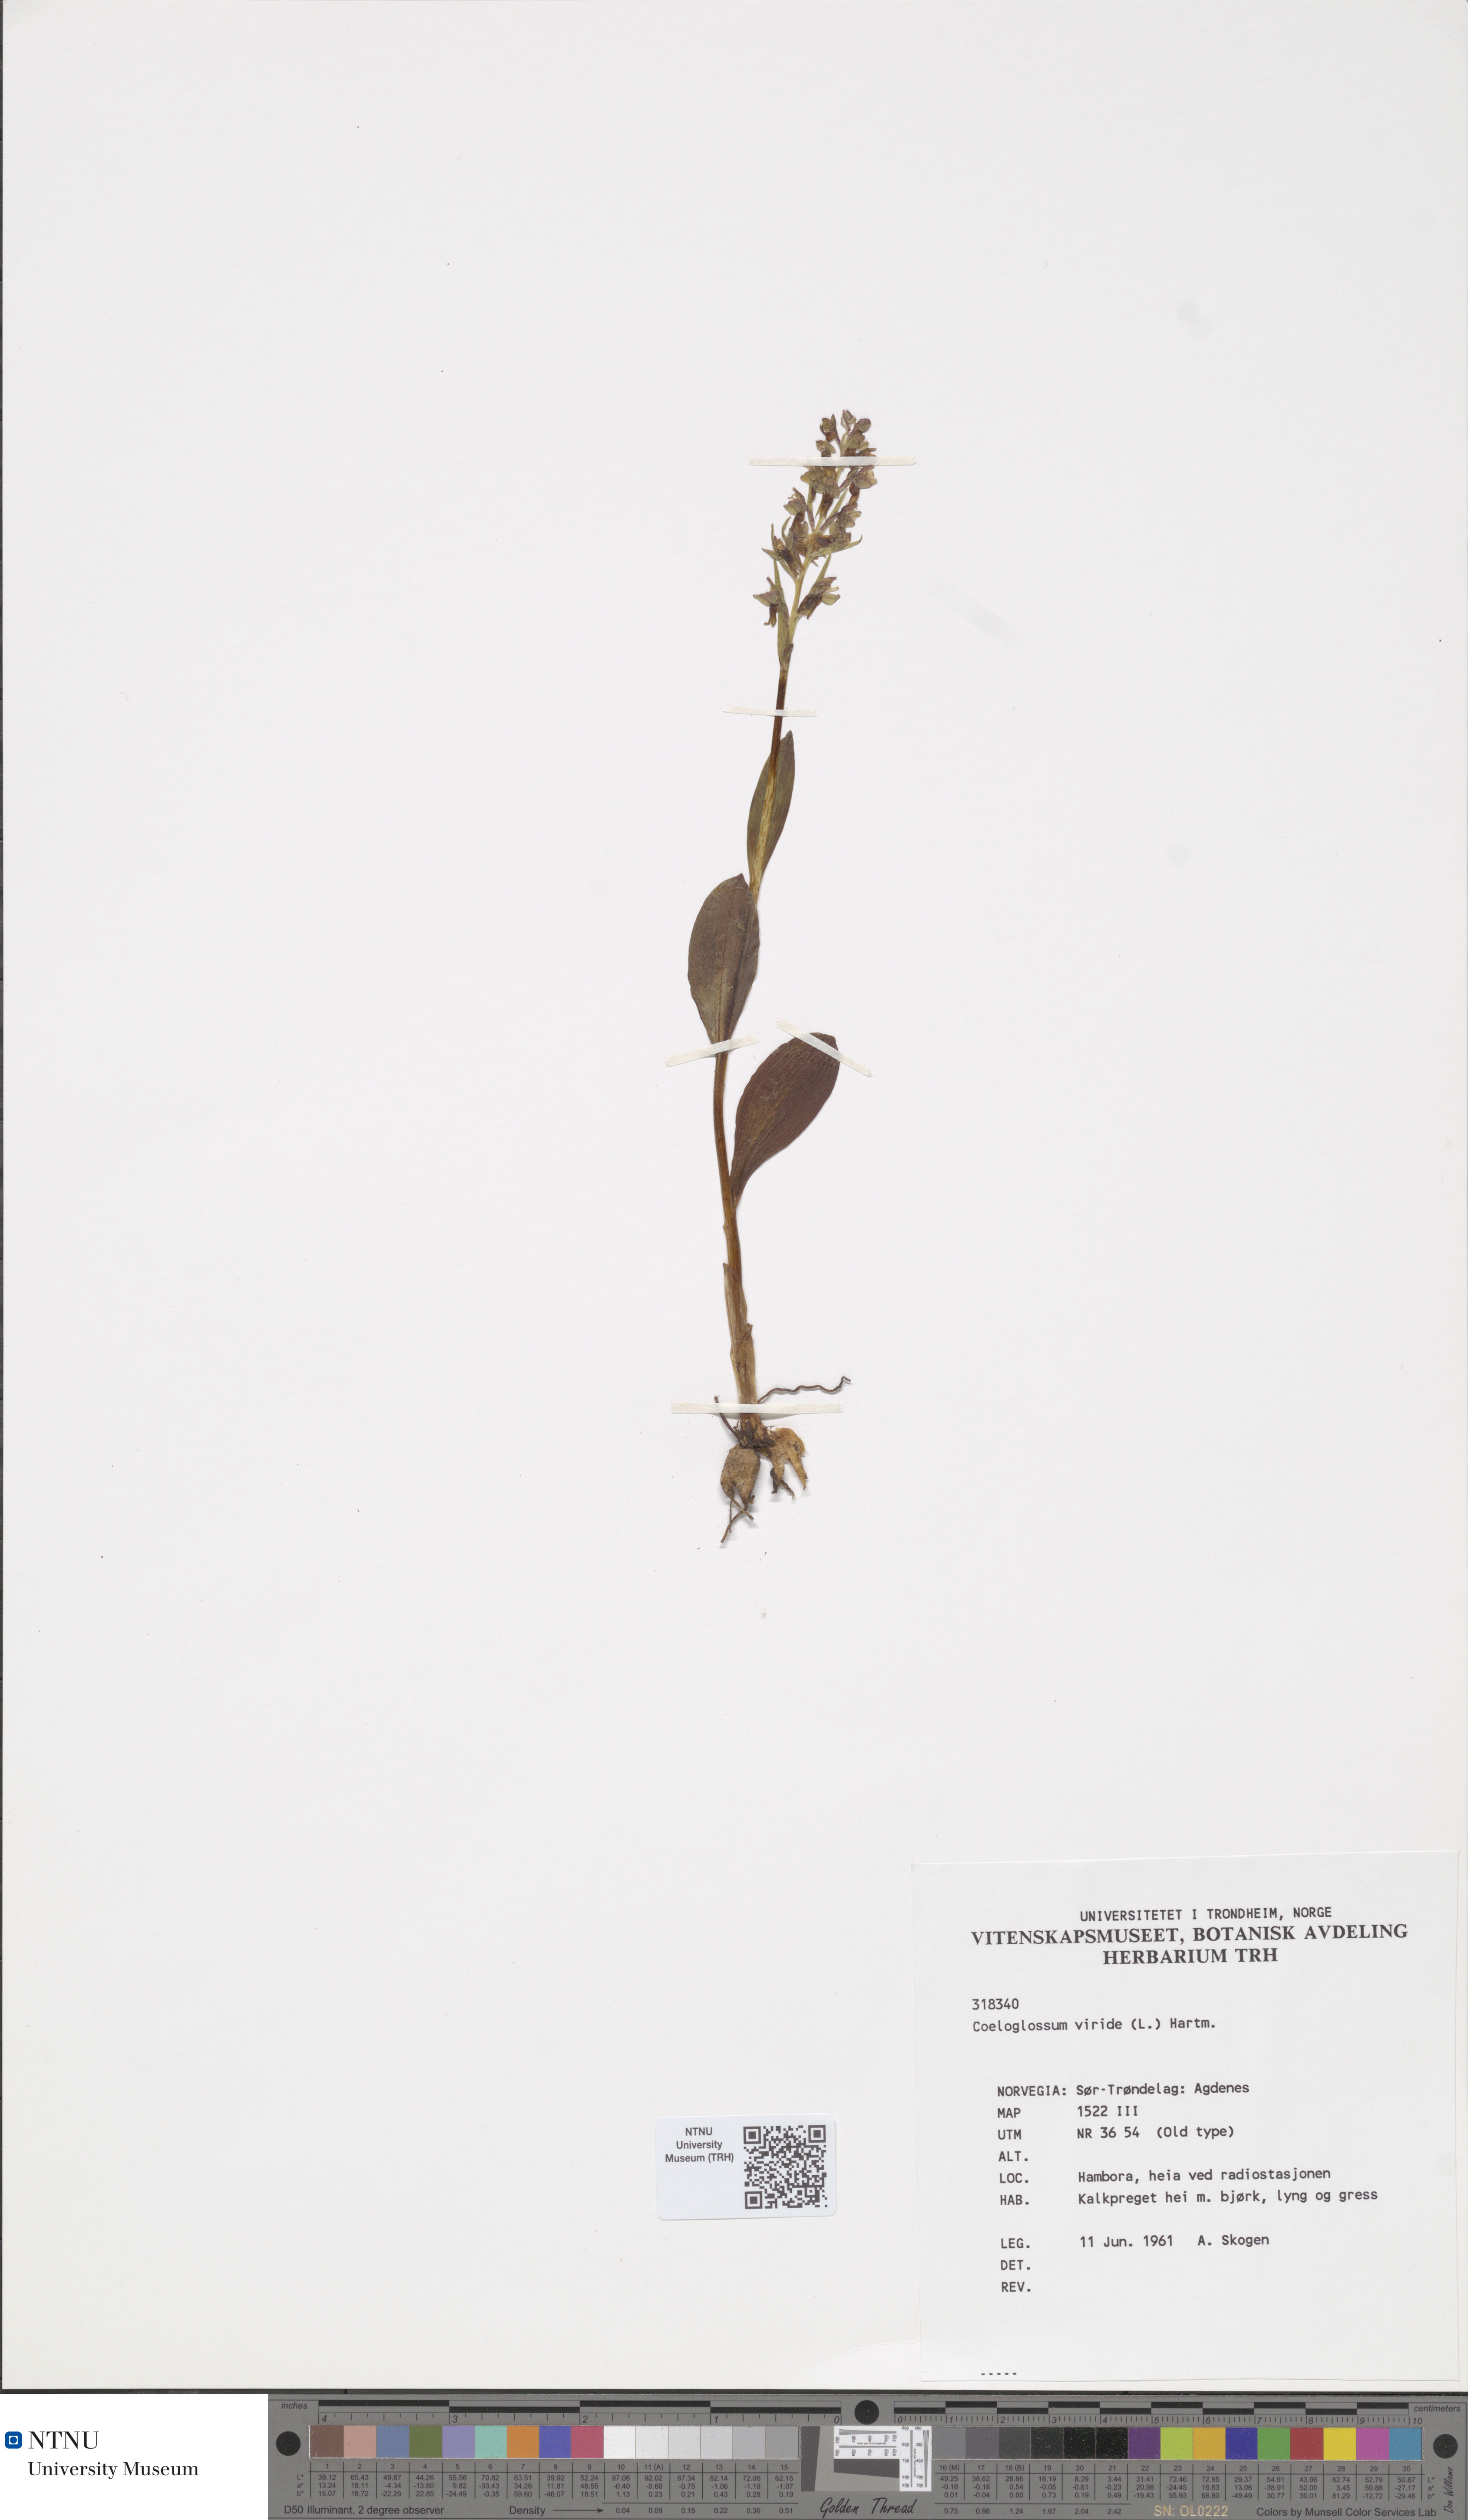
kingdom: Plantae
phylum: Tracheophyta
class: Liliopsida
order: Asparagales
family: Orchidaceae
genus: Dactylorhiza
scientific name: Dactylorhiza viridis
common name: Longbract frog orchid
